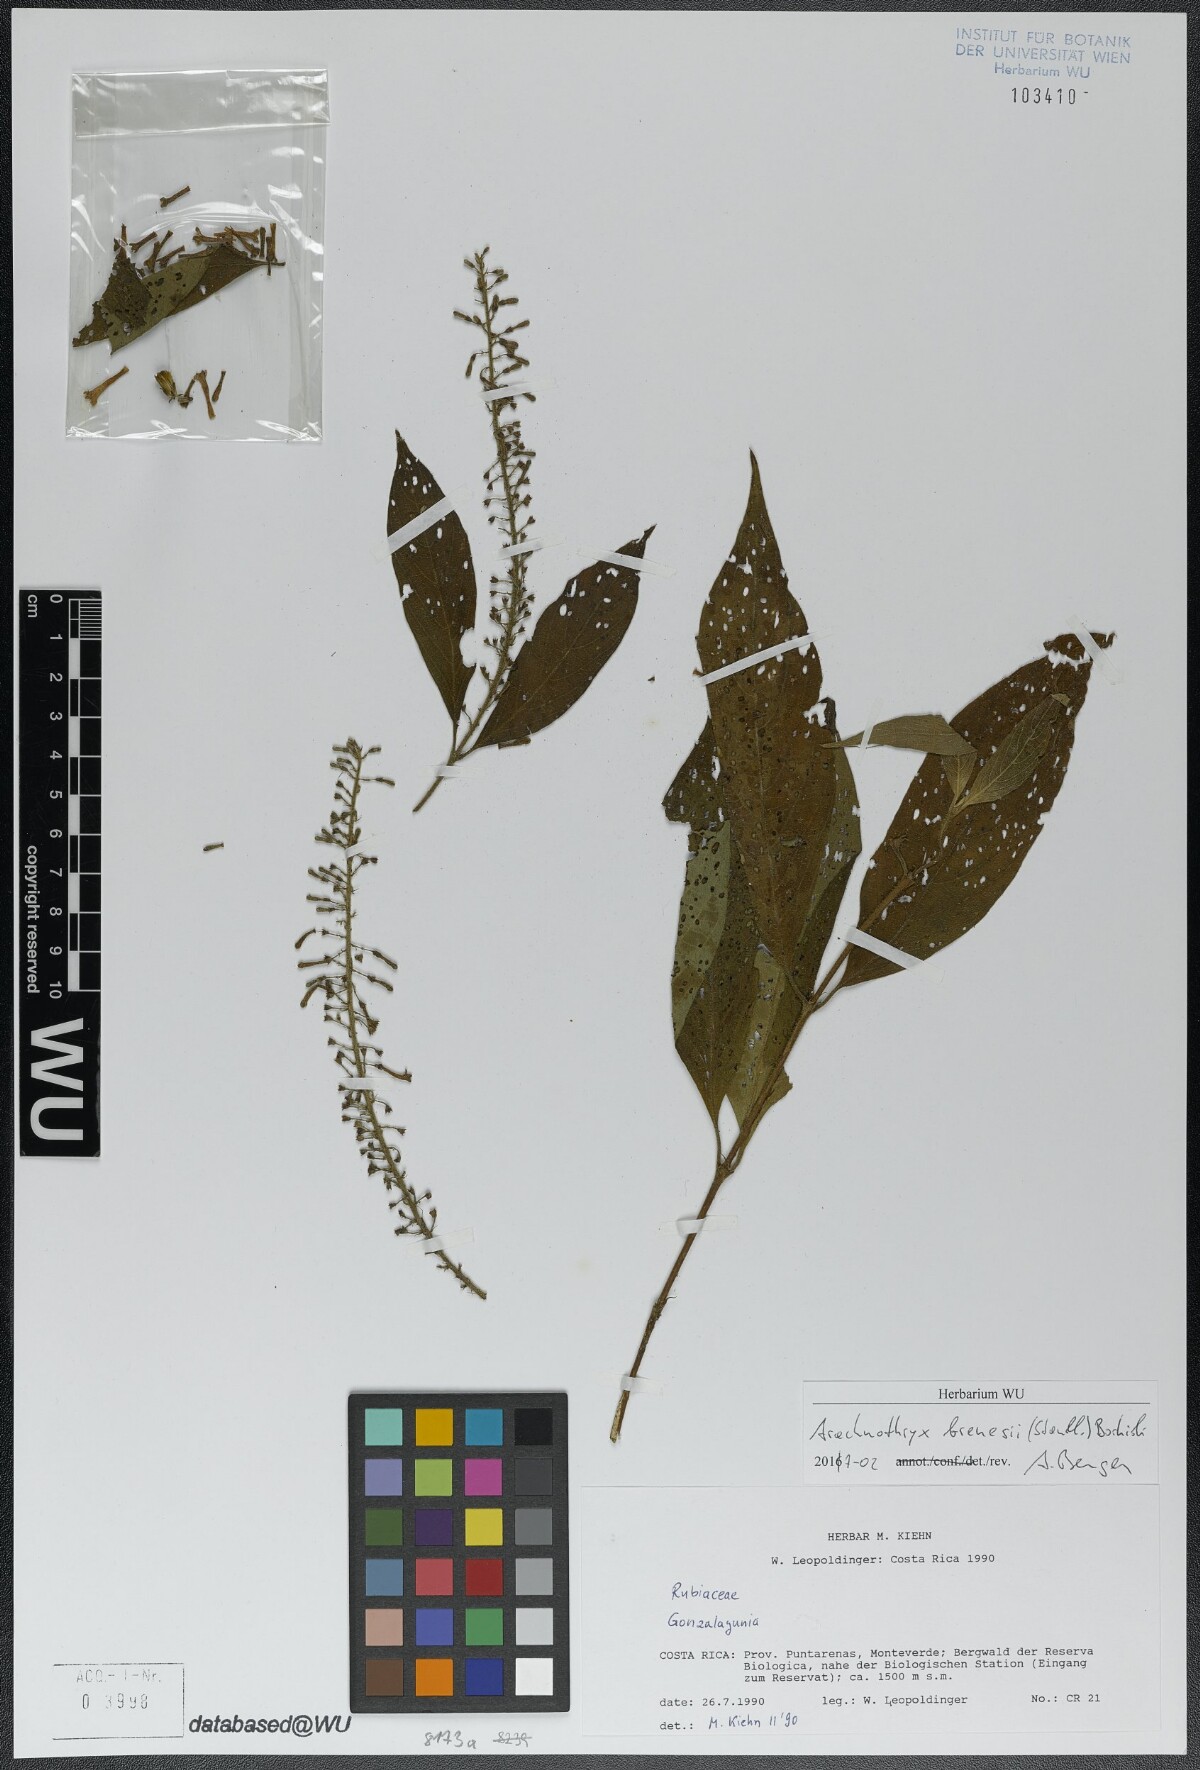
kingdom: Plantae
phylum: Tracheophyta
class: Magnoliopsida
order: Gentianales
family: Rubiaceae
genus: Arachnothryx
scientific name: Arachnothryx brenesii
